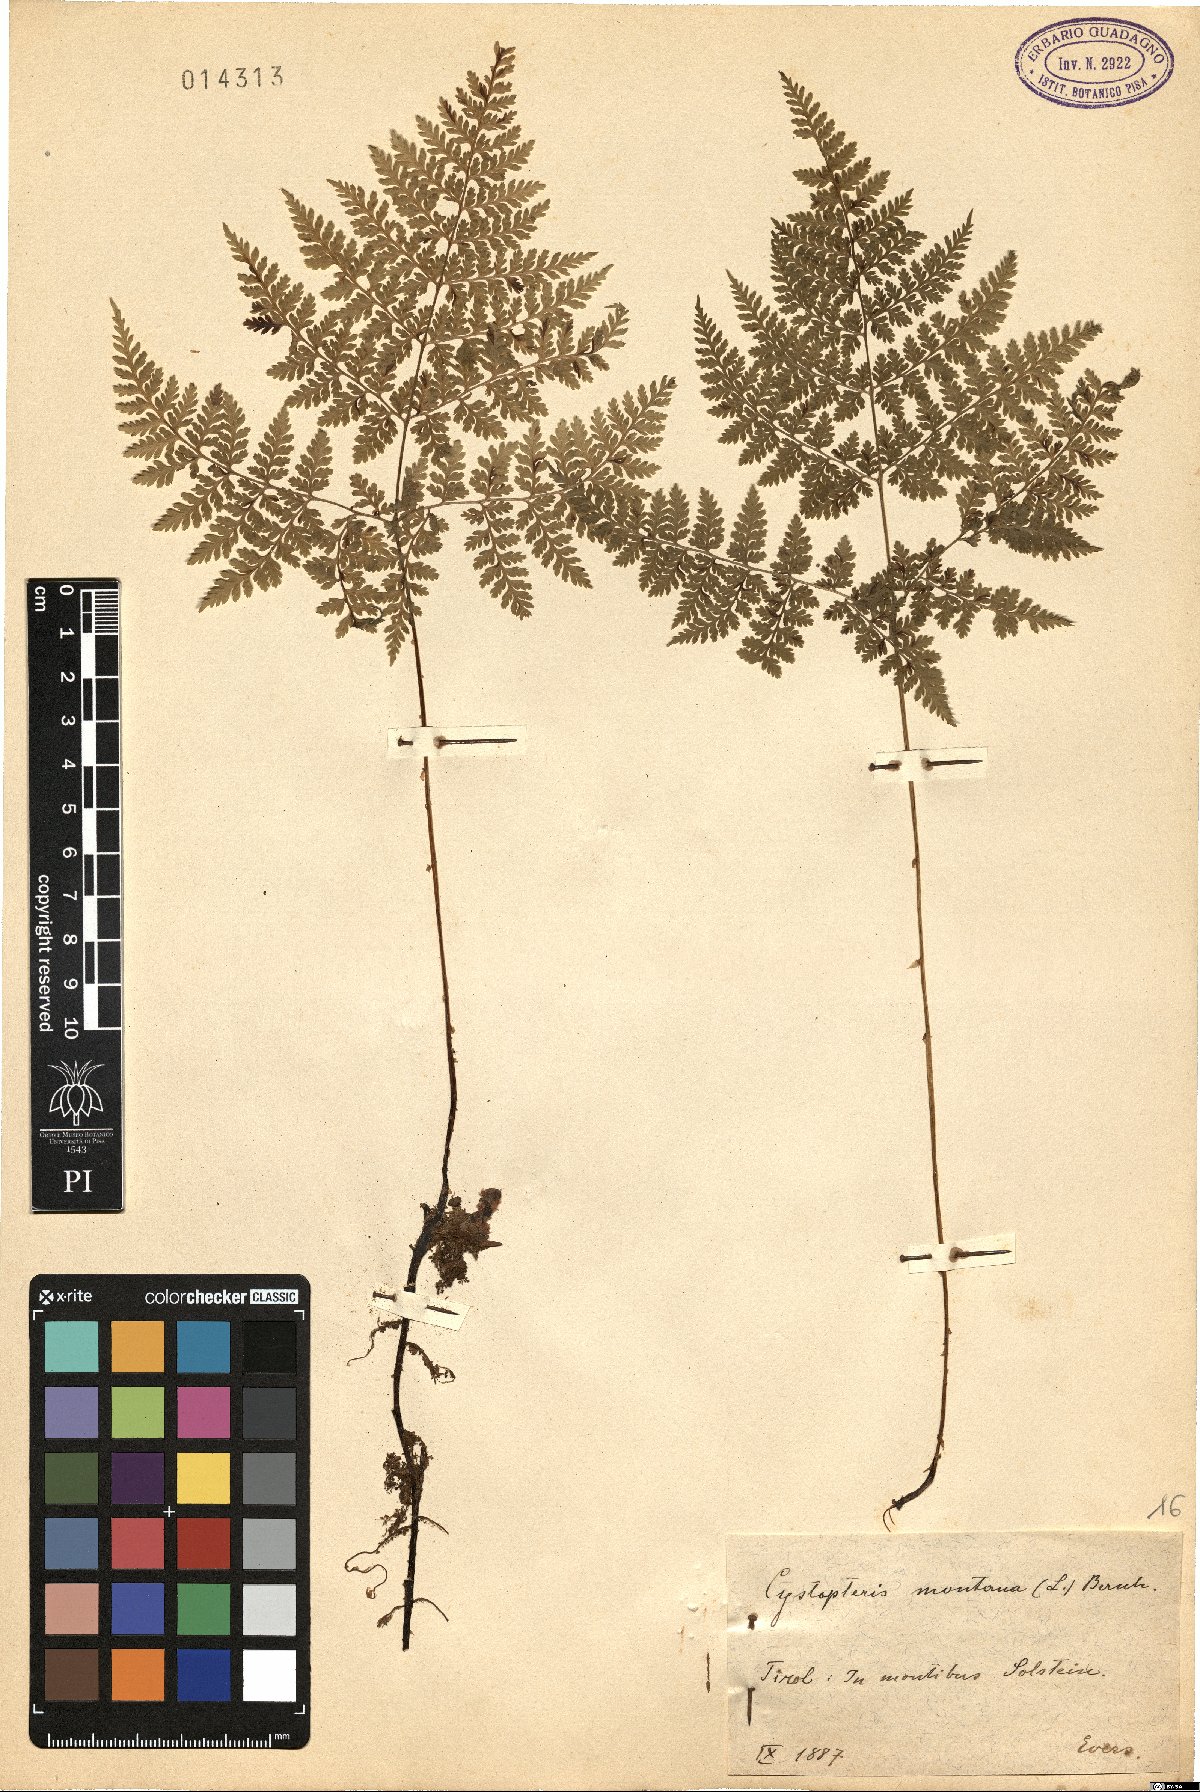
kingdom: Plantae
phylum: Tracheophyta
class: Polypodiopsida
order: Polypodiales
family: Cystopteridaceae
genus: Cystopteris
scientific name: Cystopteris montana
